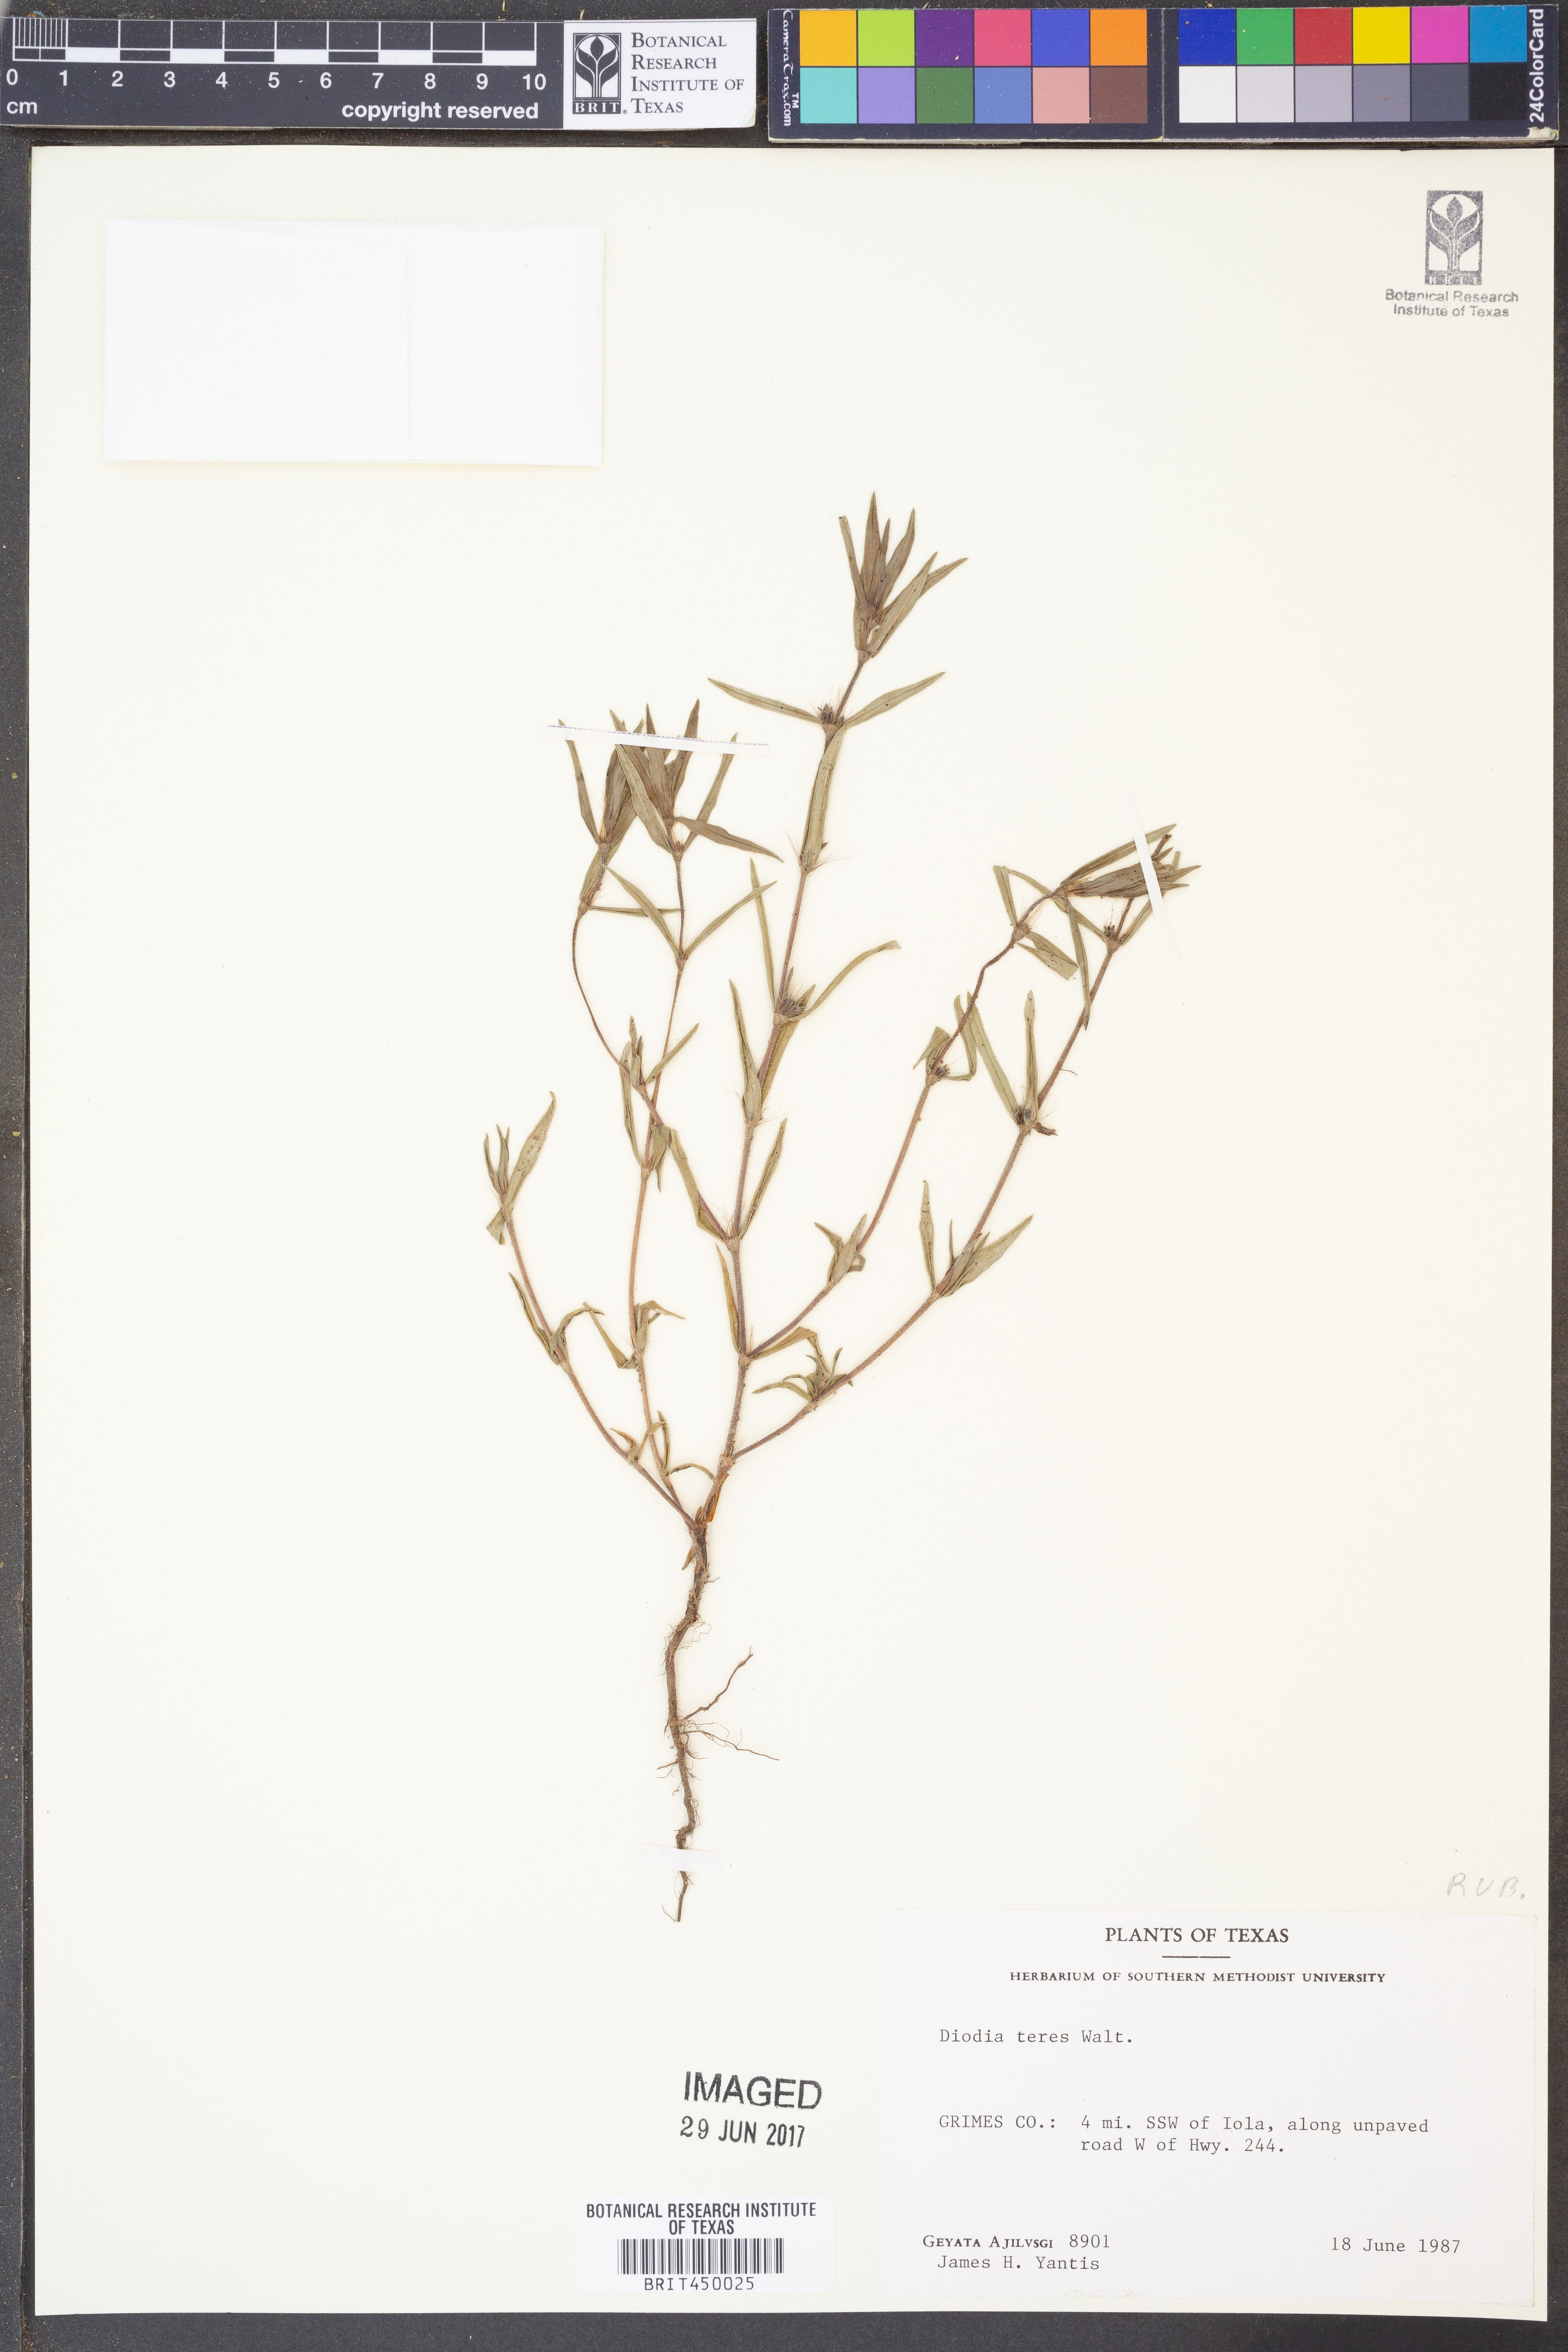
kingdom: Plantae
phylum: Tracheophyta
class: Magnoliopsida
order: Gentianales
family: Rubiaceae
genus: Hexasepalum
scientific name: Hexasepalum teres
